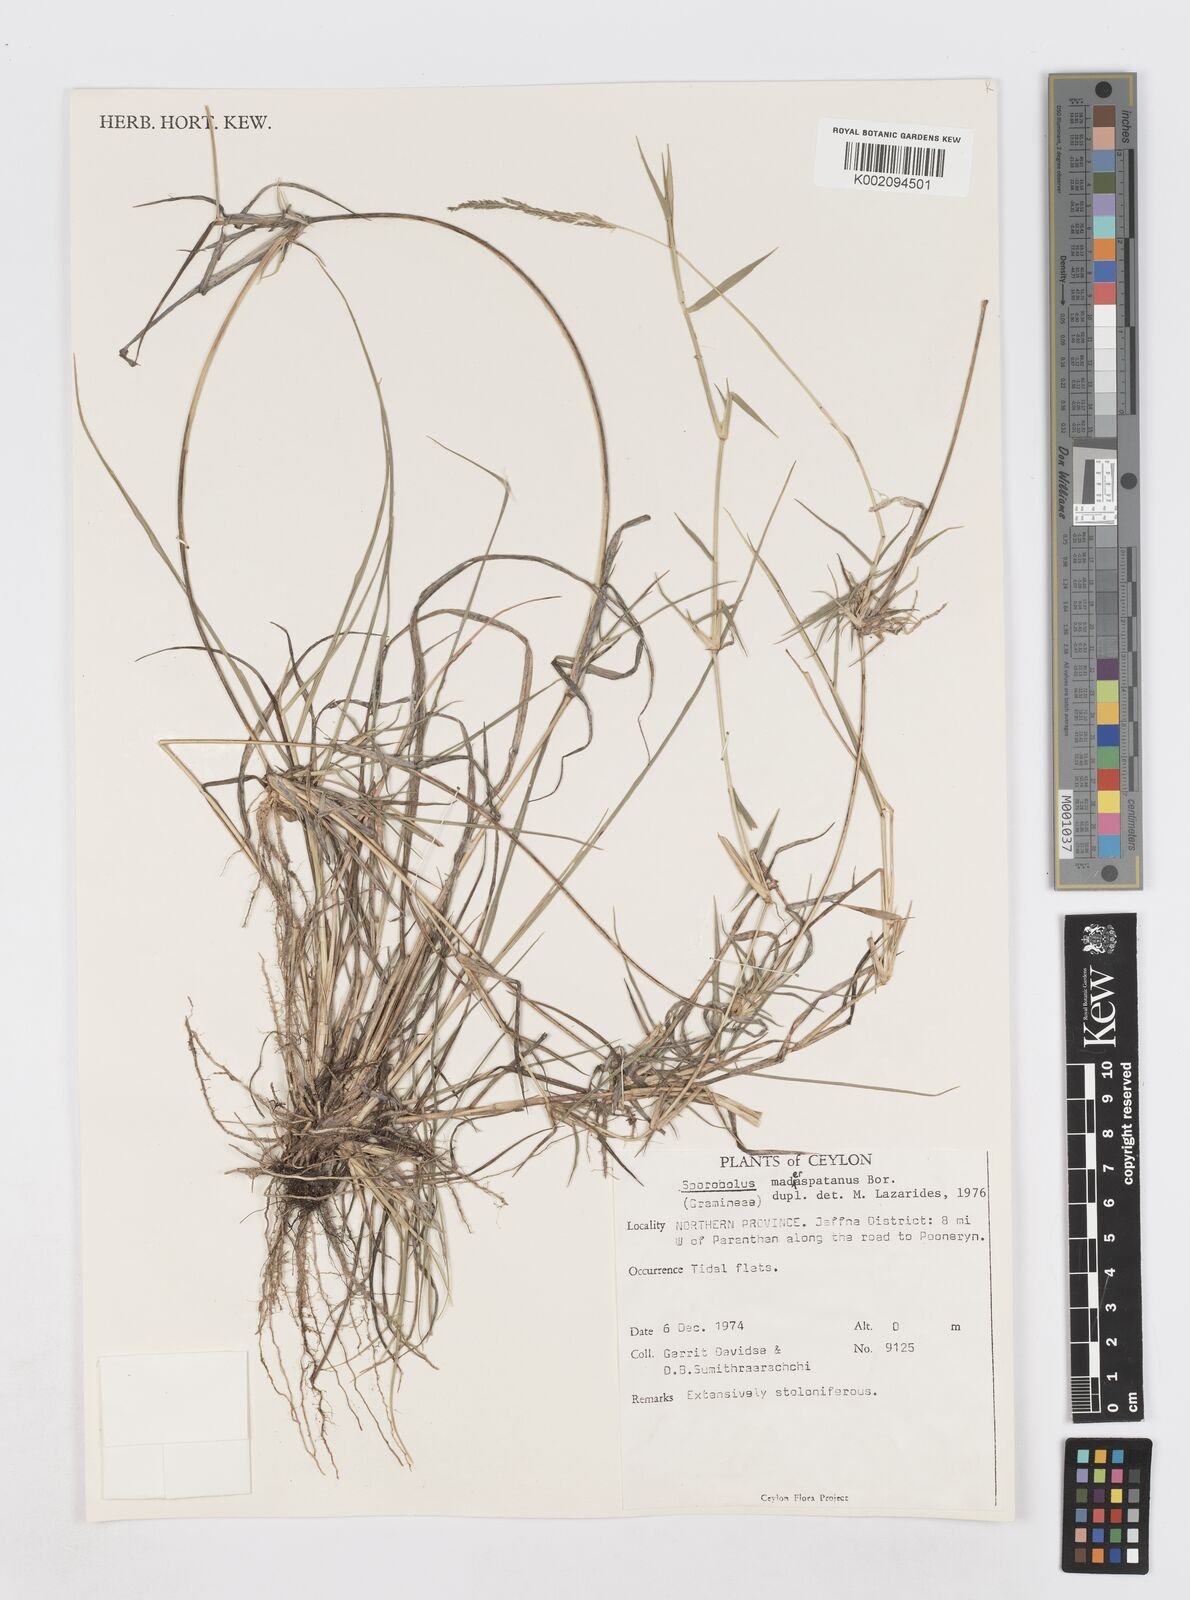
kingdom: Plantae
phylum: Tracheophyta
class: Liliopsida
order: Poales
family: Poaceae
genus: Sporobolus
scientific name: Sporobolus maderaspatanus
